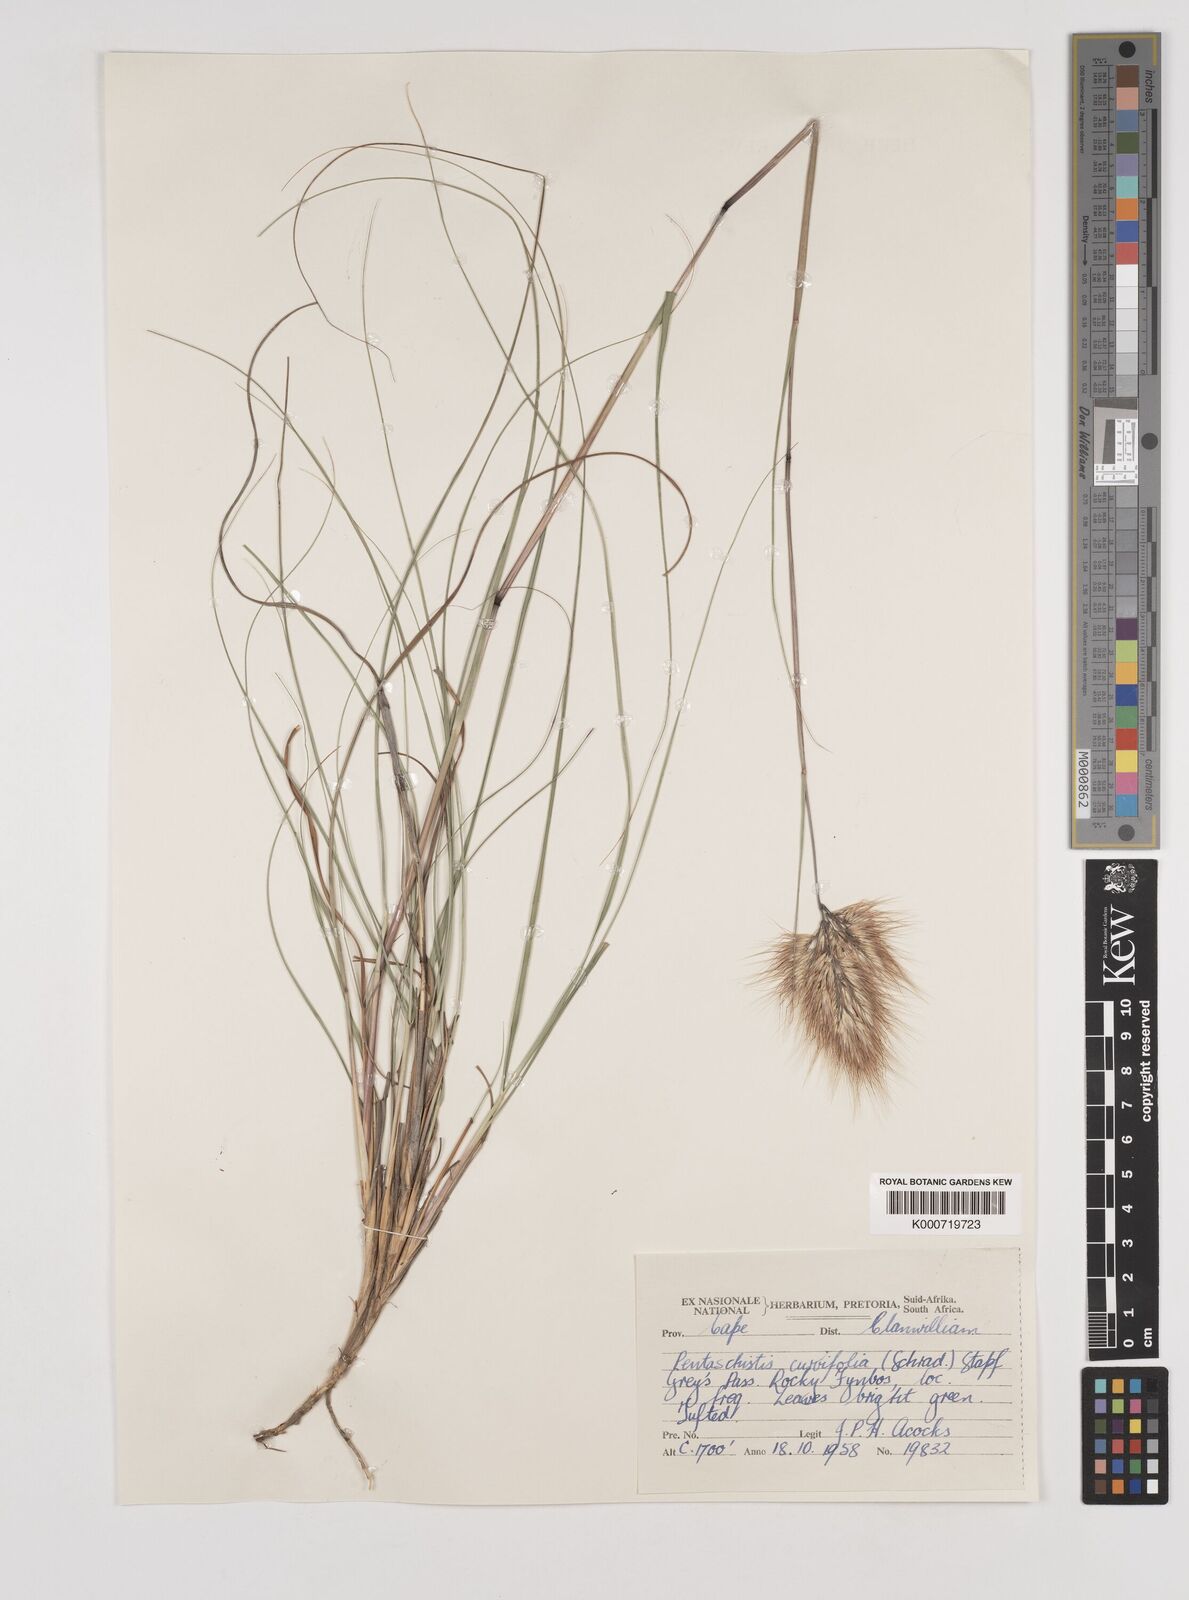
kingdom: Plantae
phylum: Tracheophyta
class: Liliopsida
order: Poales
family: Poaceae
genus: Pentameris
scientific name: Pentameris curvifolia
